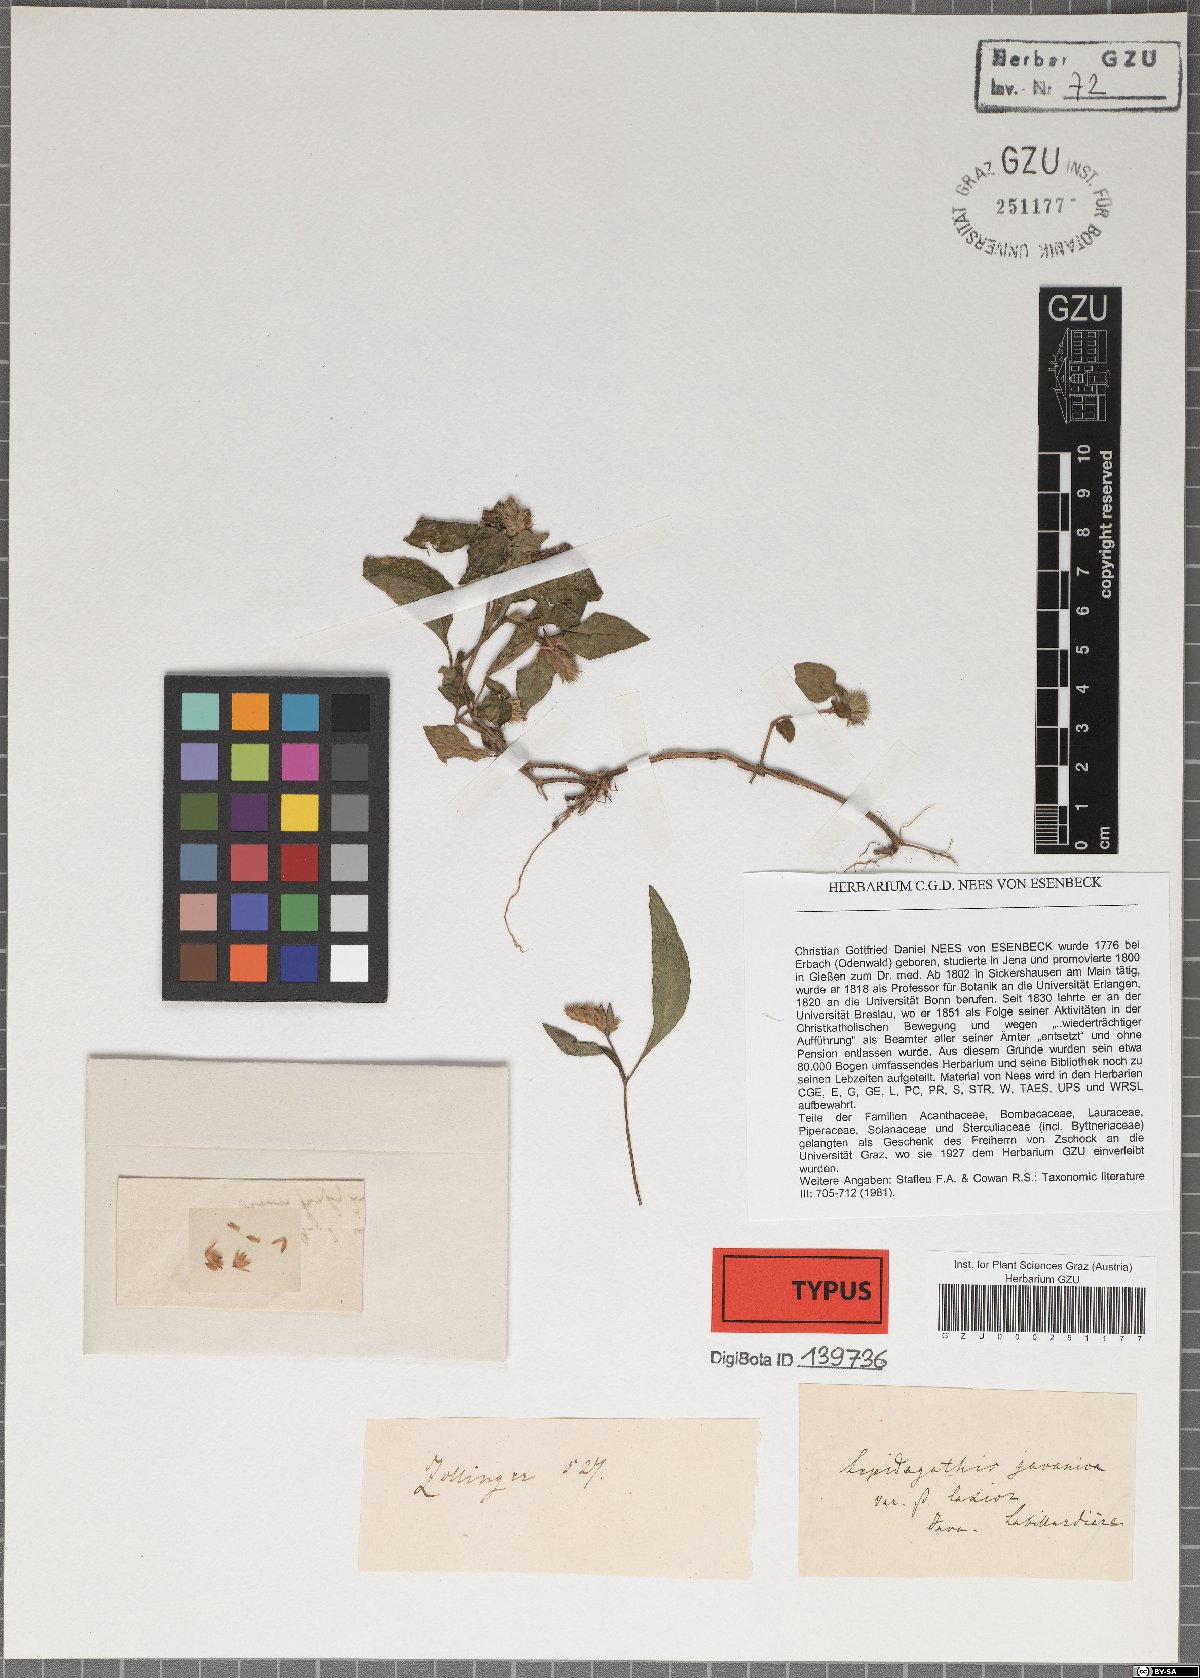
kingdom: Plantae
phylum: Tracheophyta
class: Magnoliopsida
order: Lamiales
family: Acanthaceae
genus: Lepidagathis
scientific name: Lepidagathis javanica
